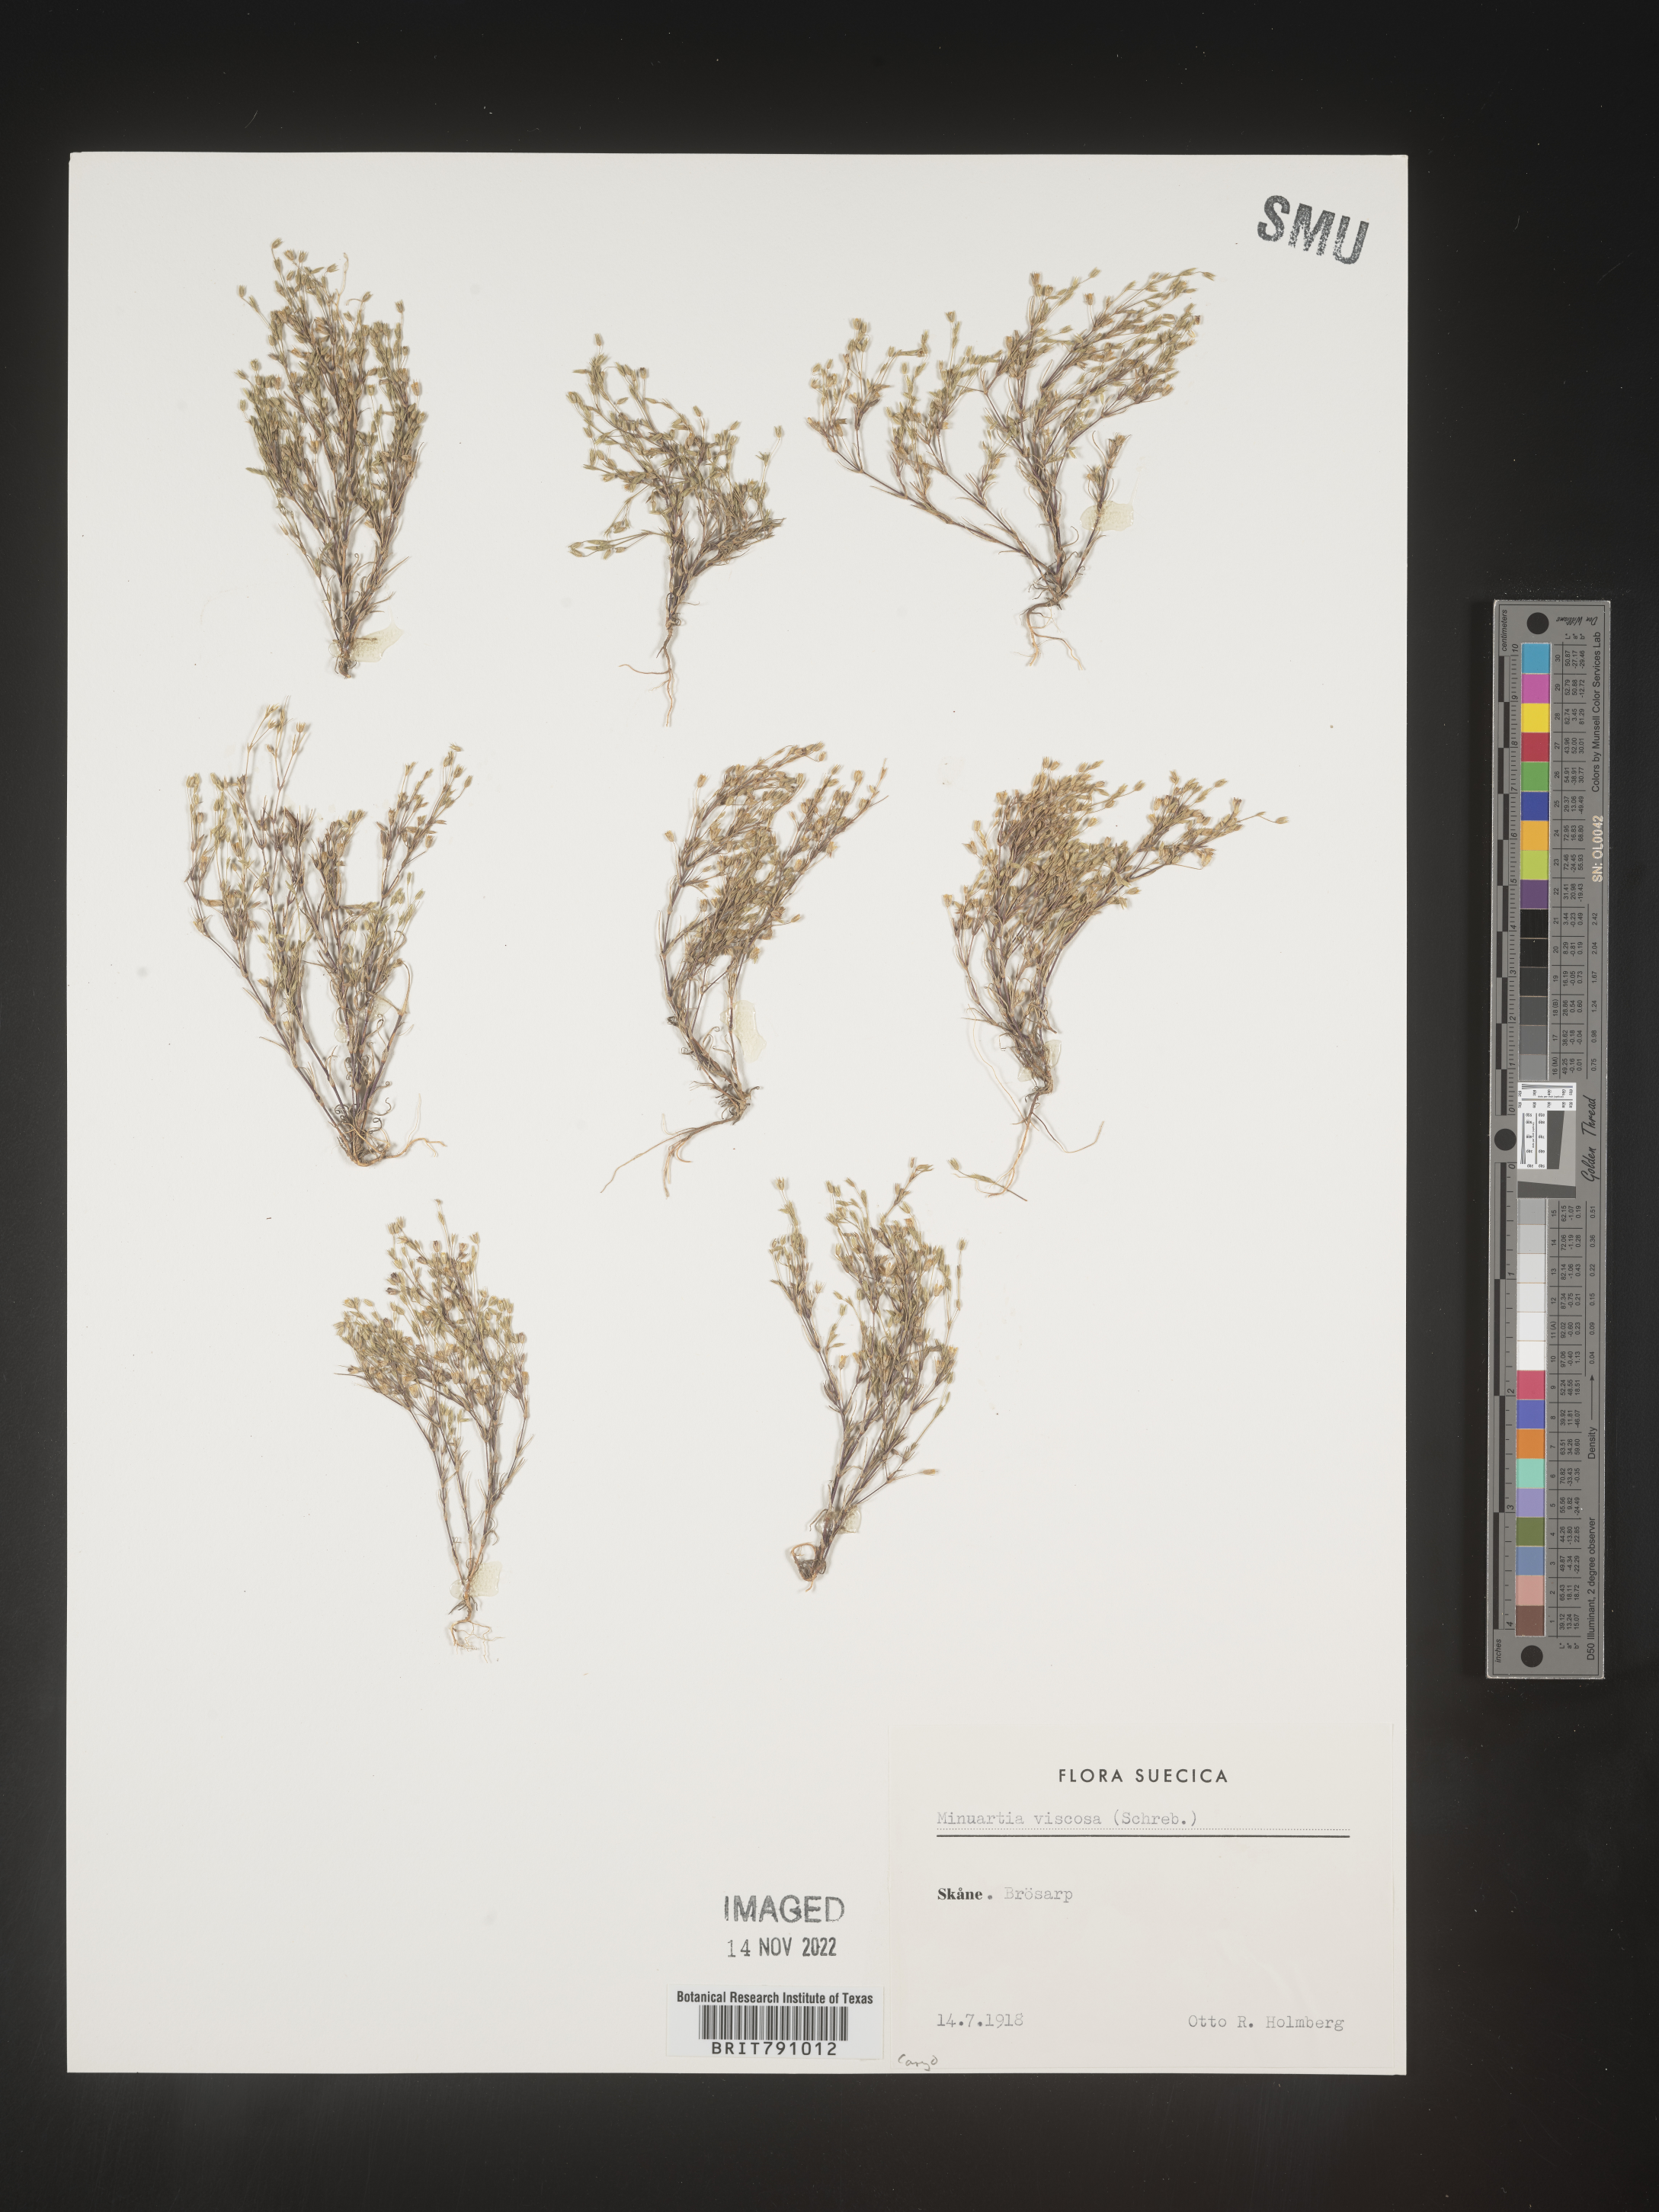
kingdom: Plantae
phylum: Tracheophyta
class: Magnoliopsida
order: Caryophyllales
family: Caryophyllaceae
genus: Minuartia
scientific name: Minuartia
